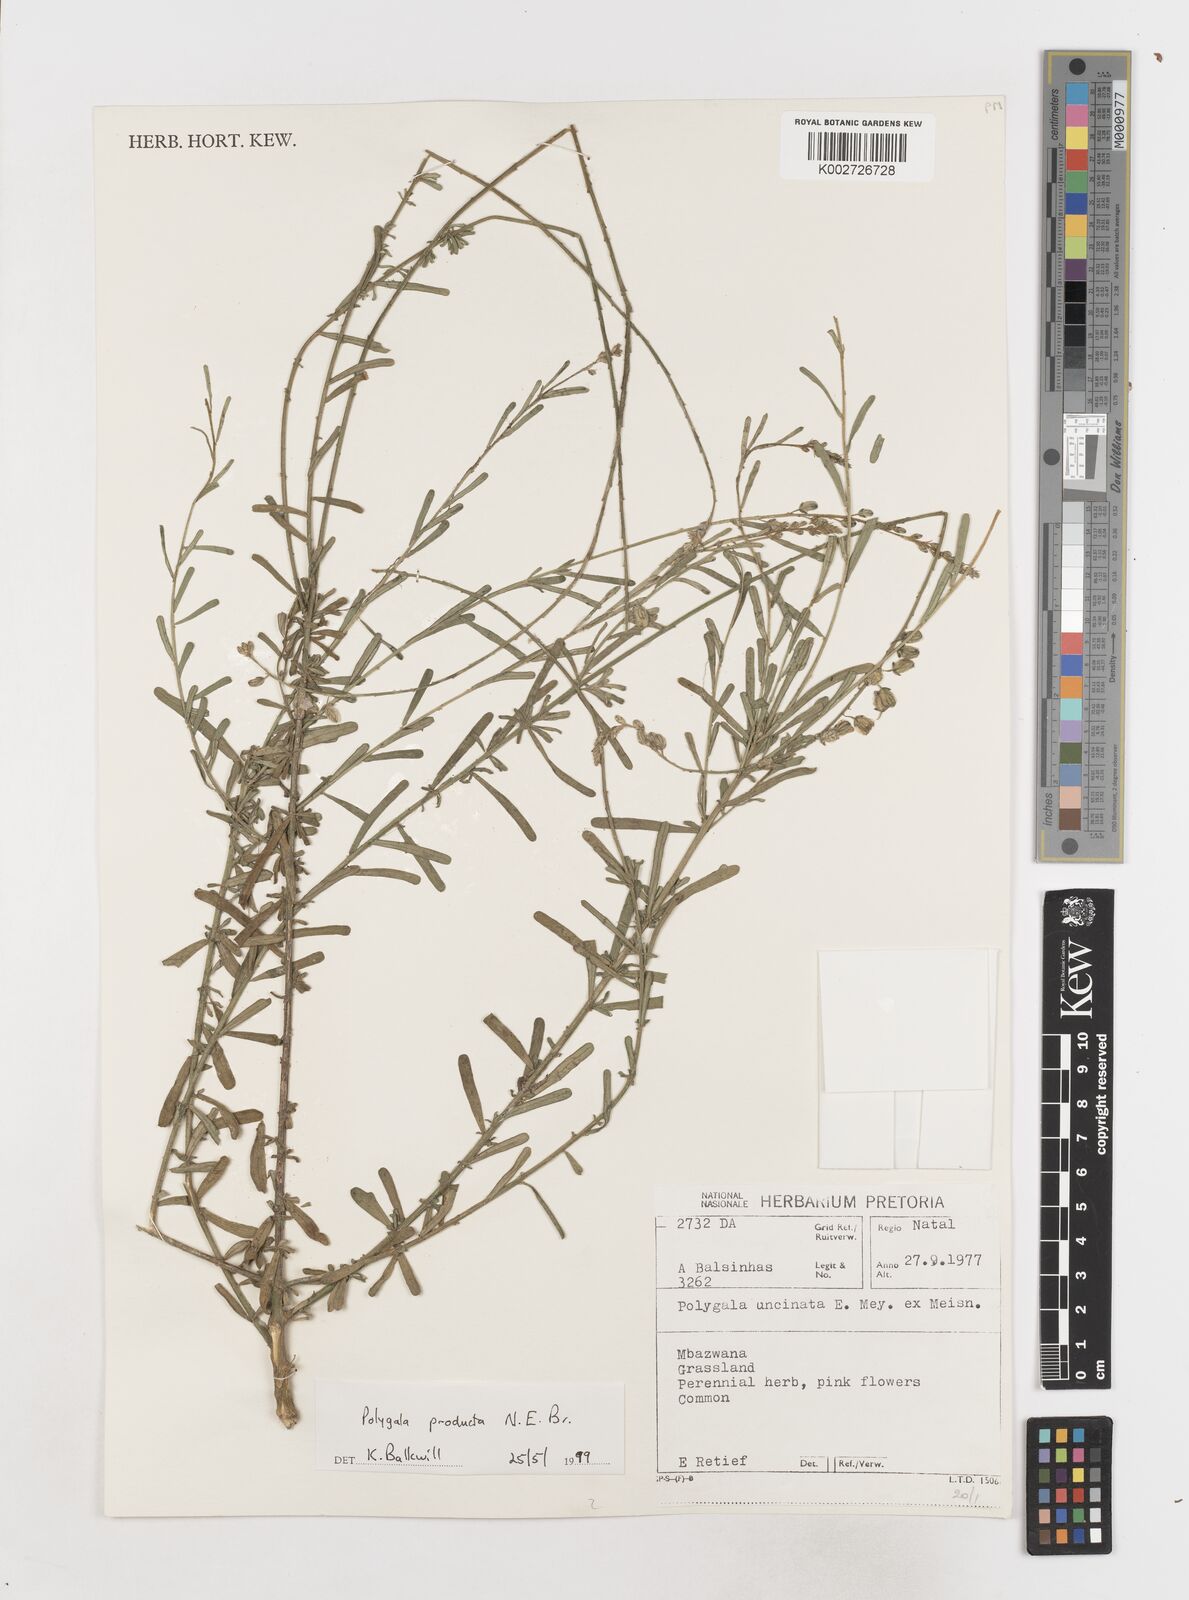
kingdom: Plantae
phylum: Tracheophyta
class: Magnoliopsida
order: Fabales
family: Polygalaceae
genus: Polygala
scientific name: Polygala producta
